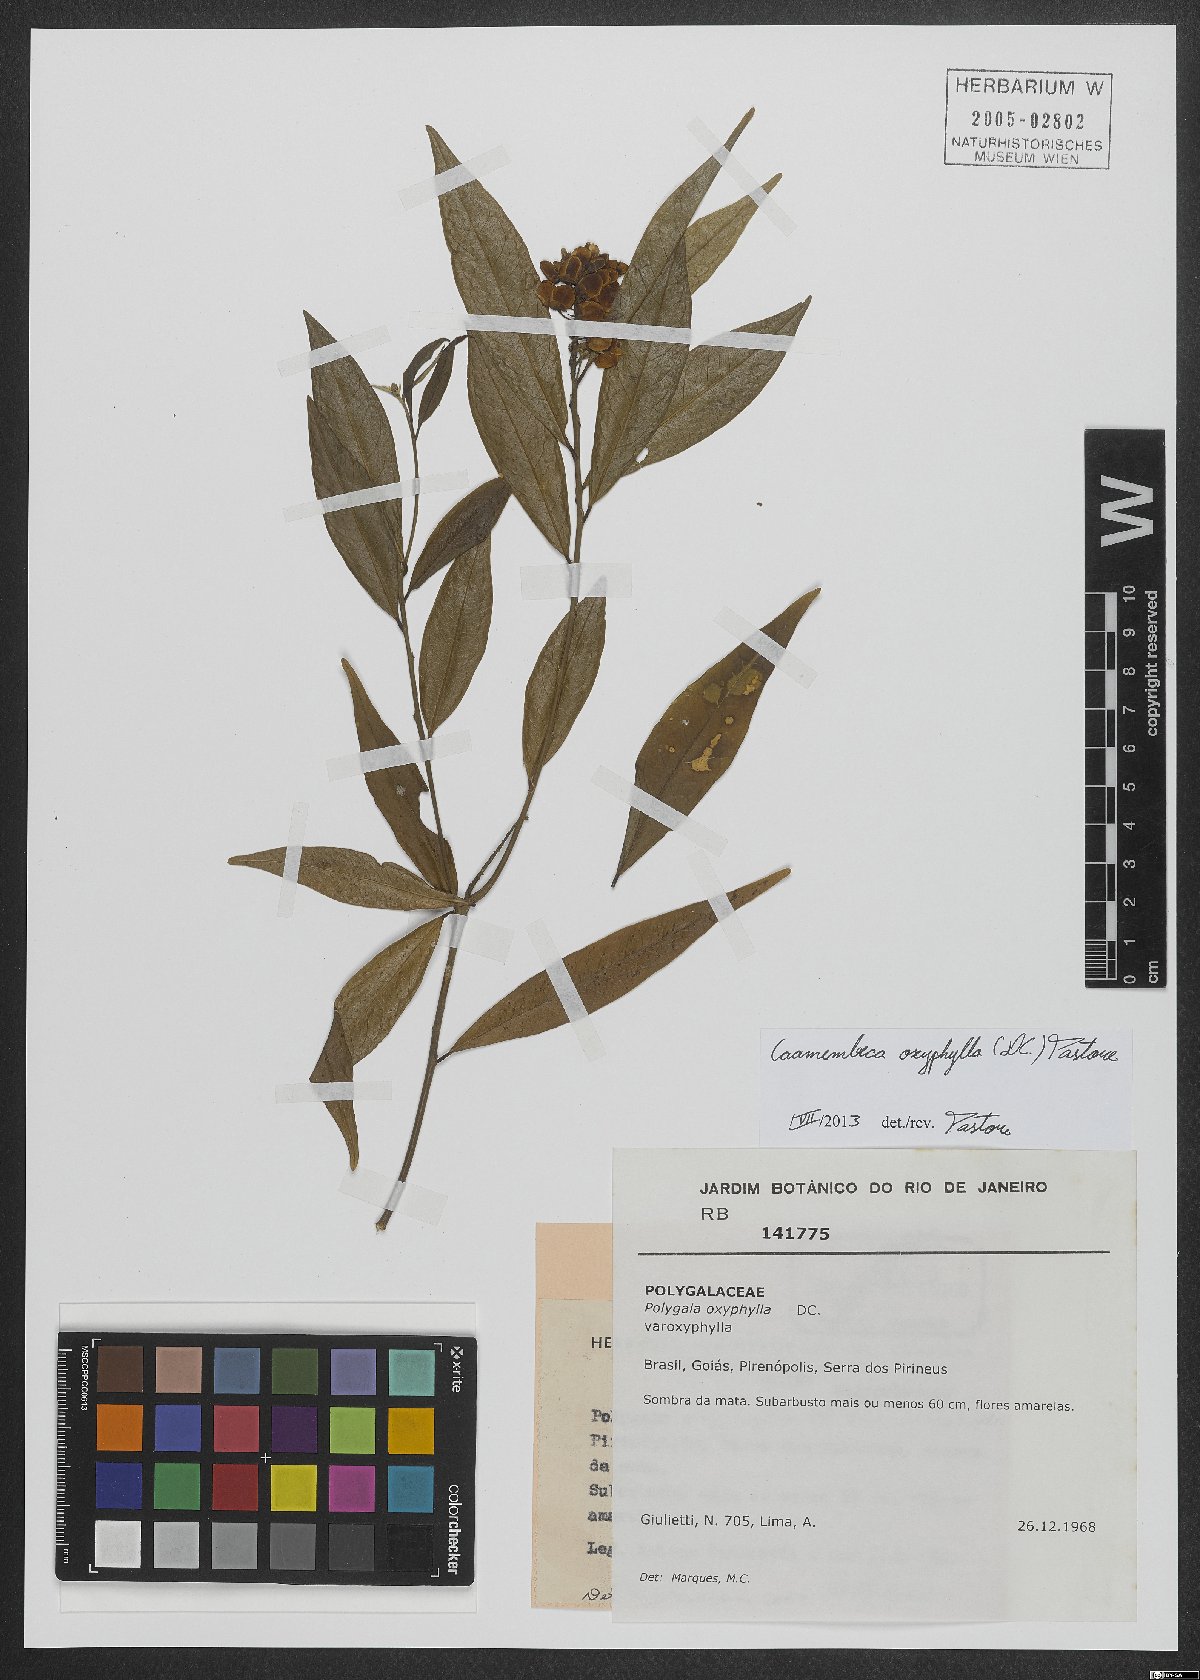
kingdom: Plantae
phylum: Tracheophyta
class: Magnoliopsida
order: Fabales
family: Polygalaceae
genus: Caamembeca
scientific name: Caamembeca oxyphylla
